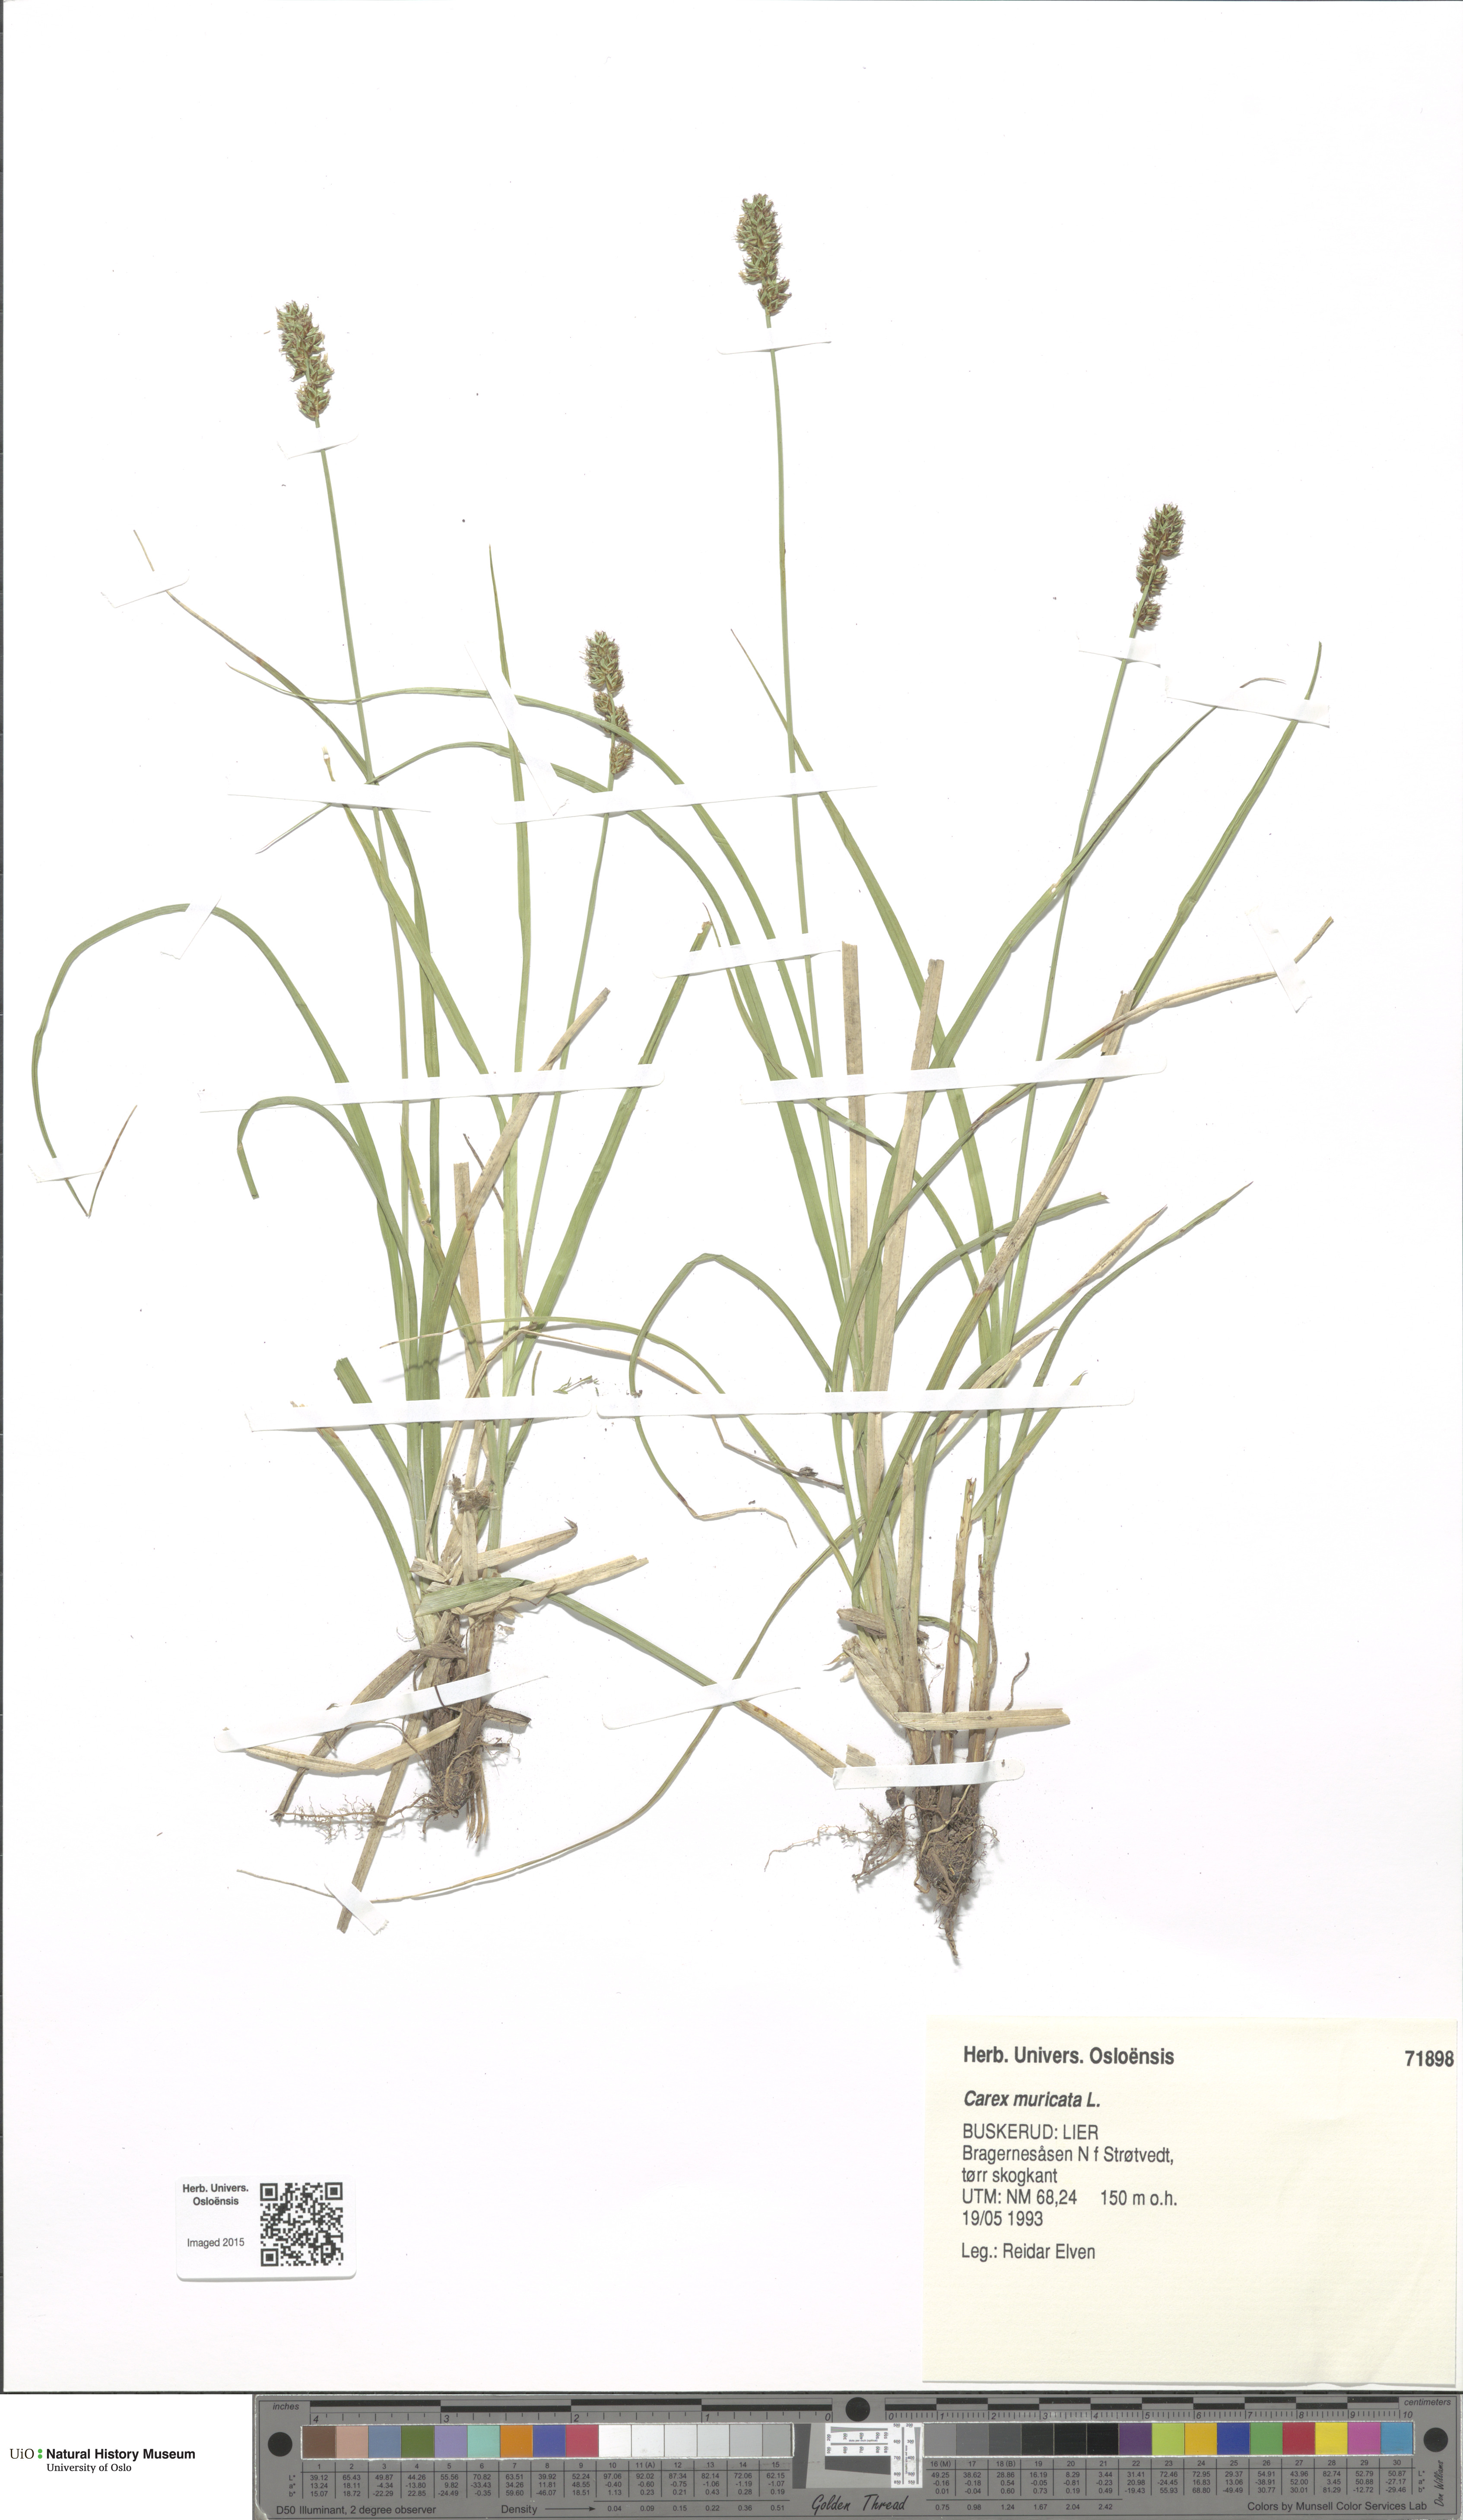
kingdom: Plantae
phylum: Tracheophyta
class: Liliopsida
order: Poales
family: Cyperaceae
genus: Carex
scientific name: Carex muricata
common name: Rough sedge
